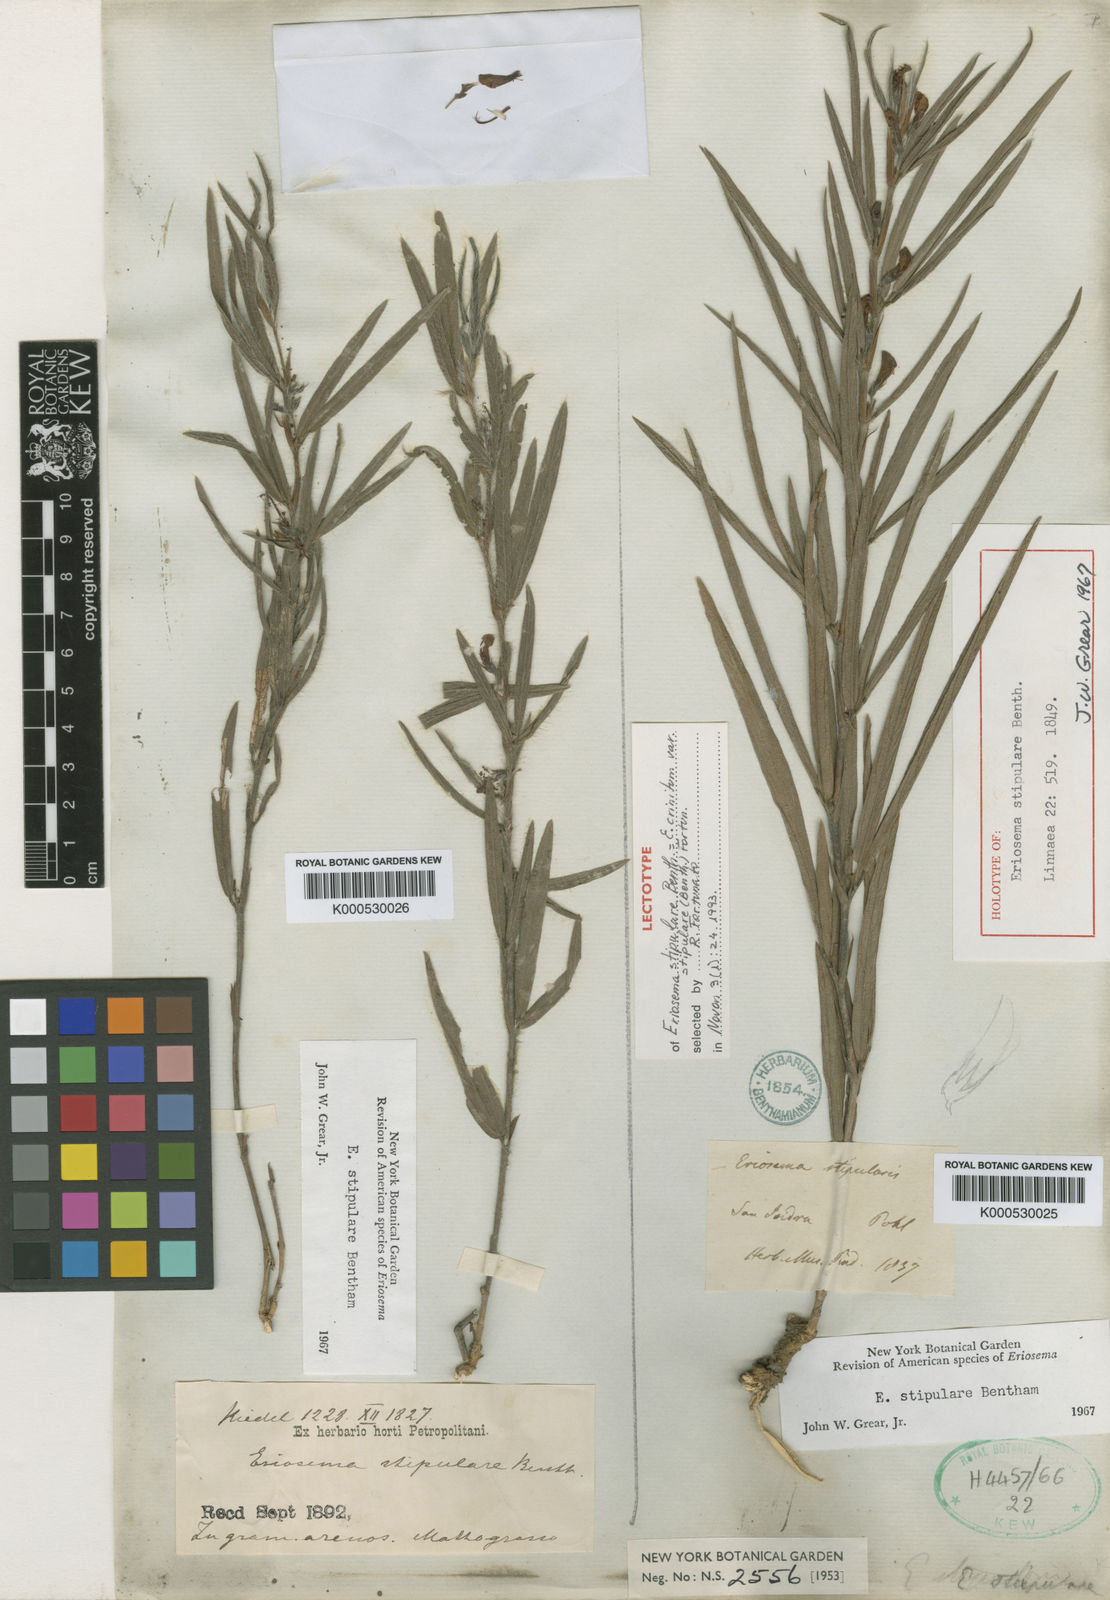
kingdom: Plantae
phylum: Tracheophyta
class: Magnoliopsida
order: Fabales
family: Fabaceae
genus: Eriosema
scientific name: Eriosema crinitum
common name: Sand pea
